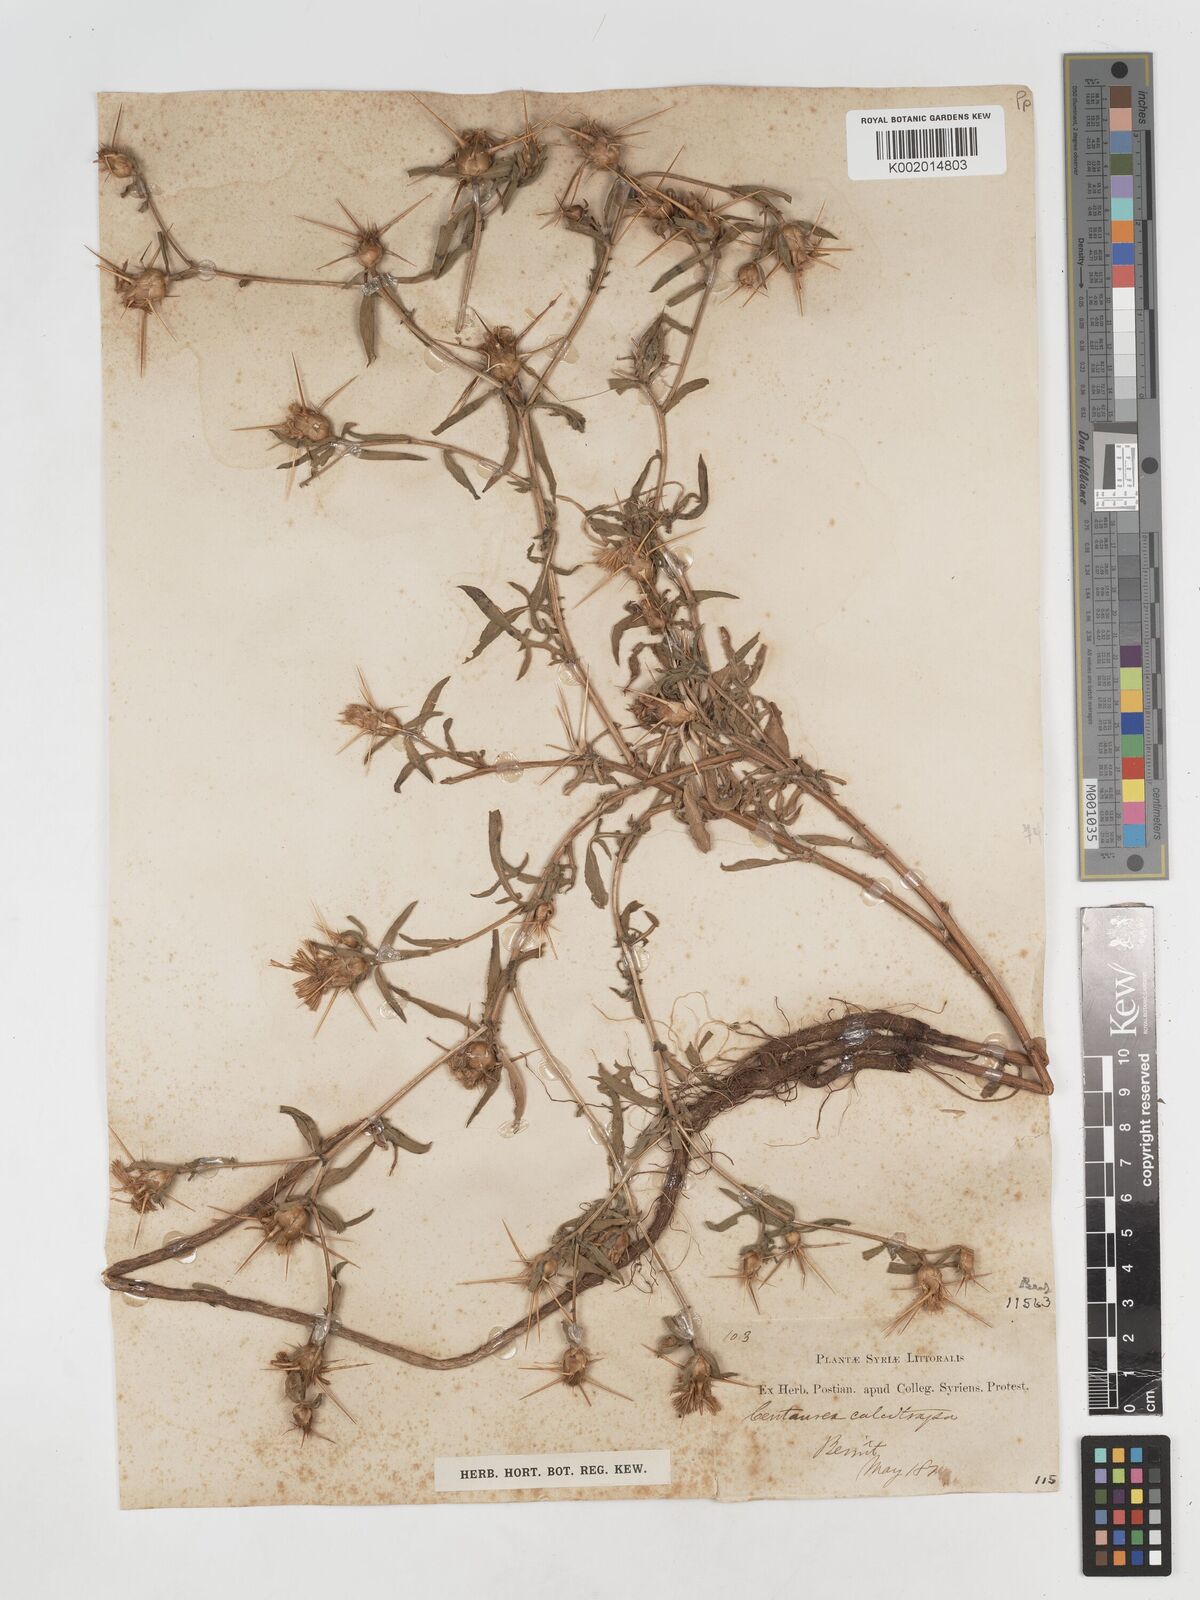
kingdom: Plantae
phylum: Tracheophyta
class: Magnoliopsida
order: Asterales
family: Asteraceae
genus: Centaurea
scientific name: Centaurea iberica
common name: Iberian knapweed
